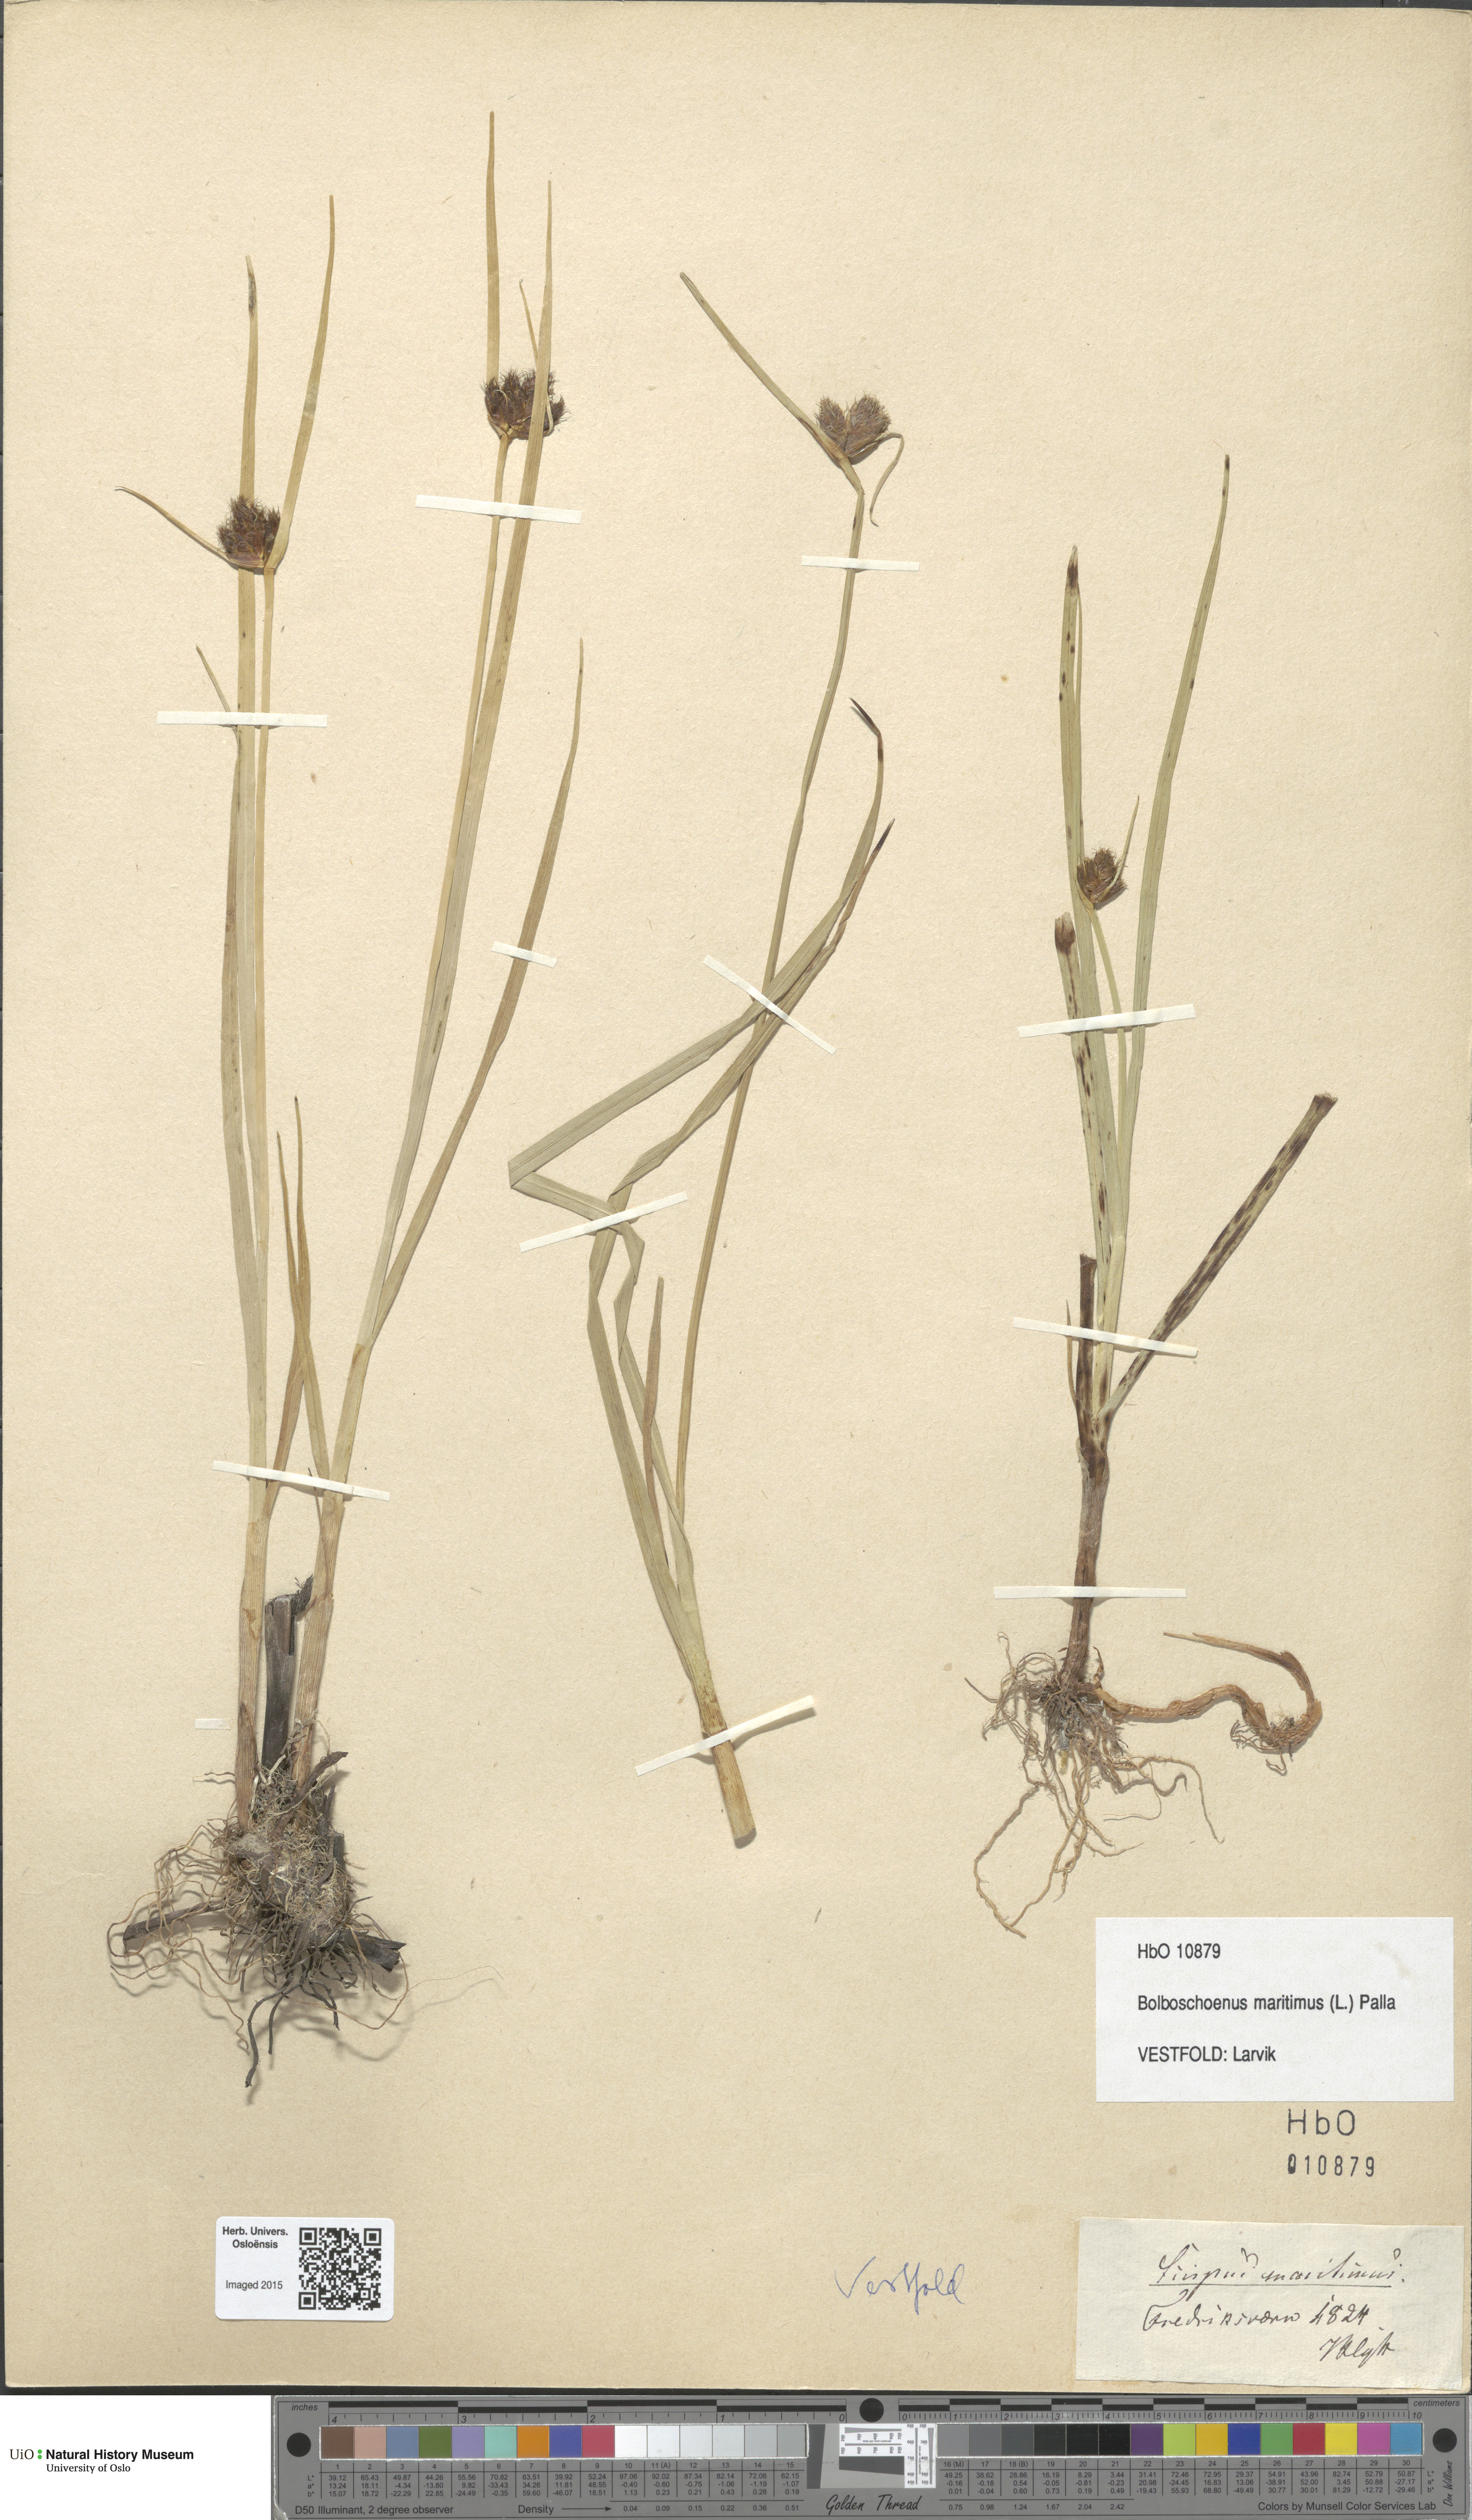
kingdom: Plantae
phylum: Tracheophyta
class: Liliopsida
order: Poales
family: Cyperaceae
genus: Bolboschoenus
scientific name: Bolboschoenus maritimus
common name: Sea club-rush
